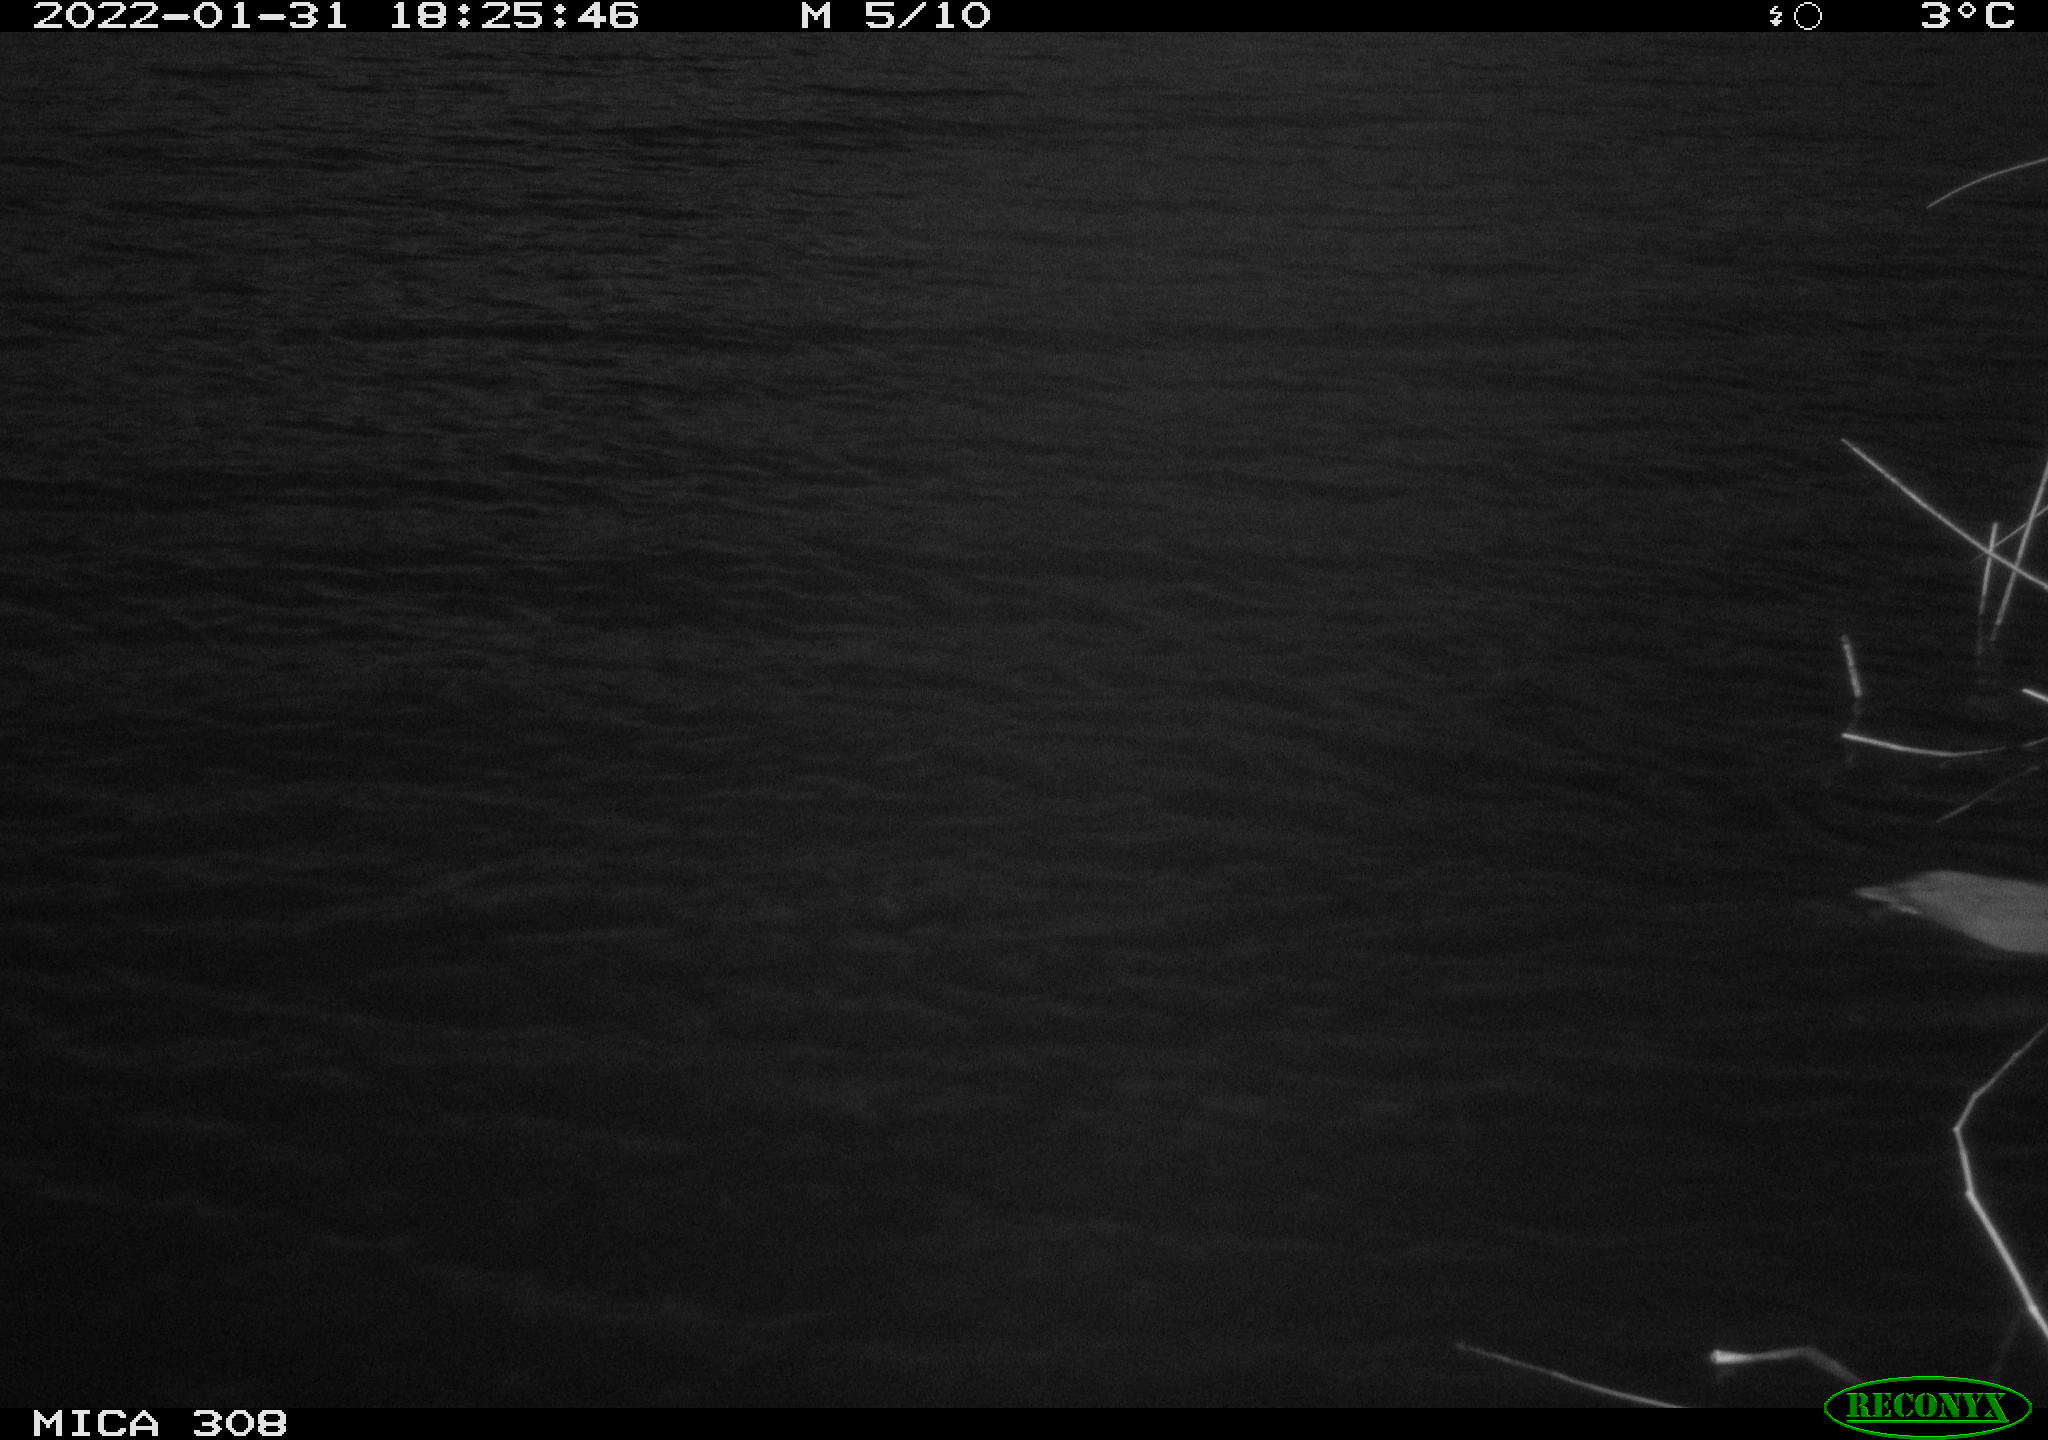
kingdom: Animalia
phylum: Chordata
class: Aves
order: Anseriformes
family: Anatidae
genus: Anas
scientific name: Anas
